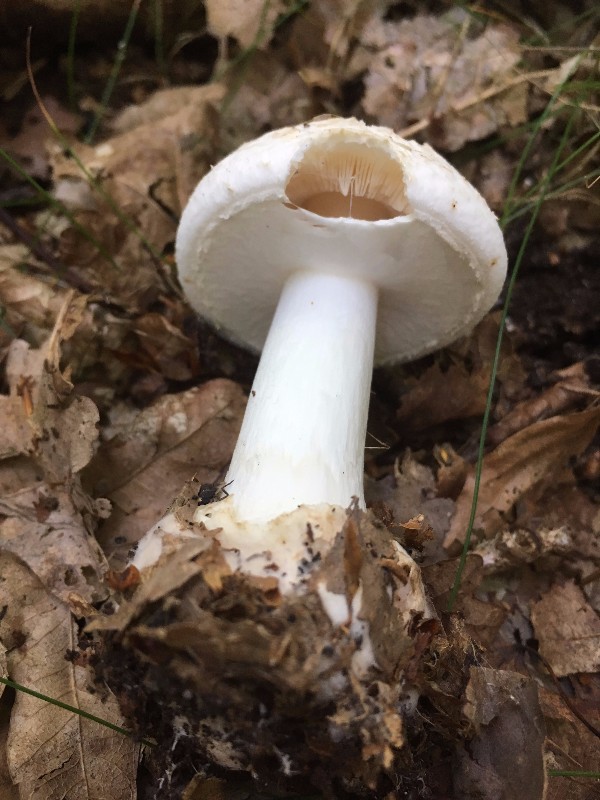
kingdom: Fungi
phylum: Basidiomycota
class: Agaricomycetes
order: Agaricales
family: Amanitaceae
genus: Amanita
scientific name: Amanita citrina
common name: kugleknoldet fluesvamp
